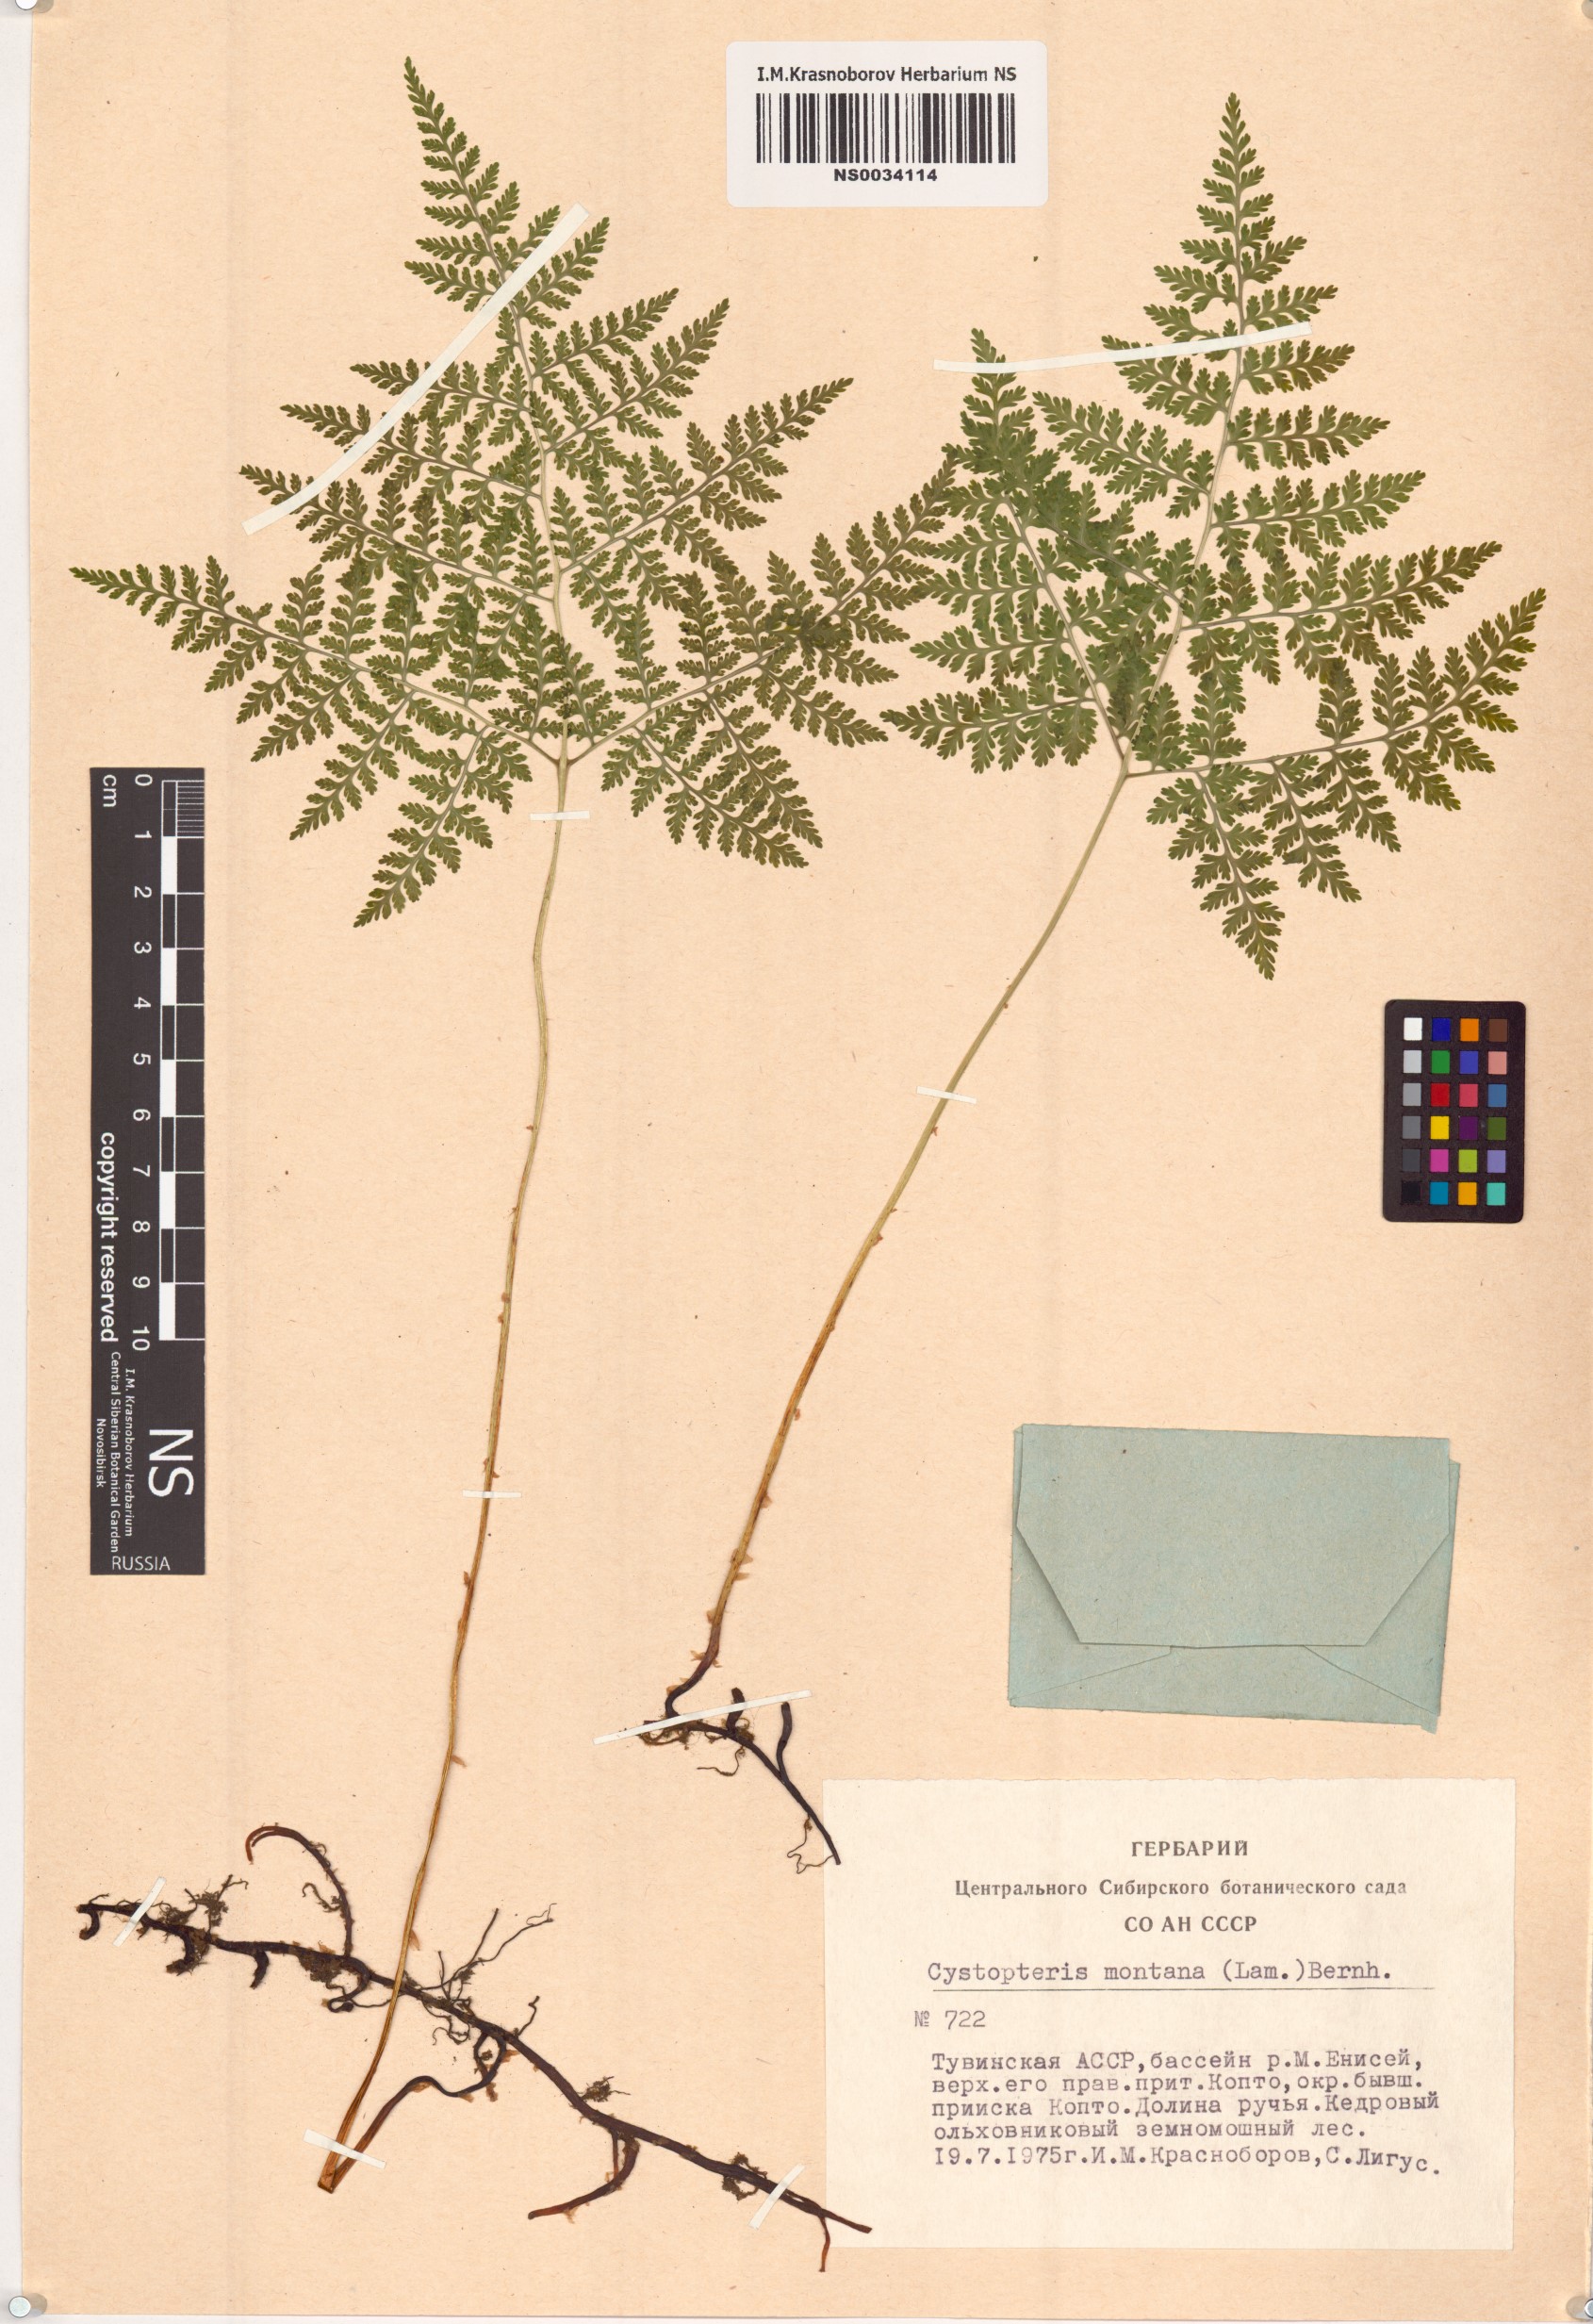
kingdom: Plantae
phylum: Tracheophyta
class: Polypodiopsida
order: Polypodiales
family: Cystopteridaceae
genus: Cystopteris
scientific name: Cystopteris montana
